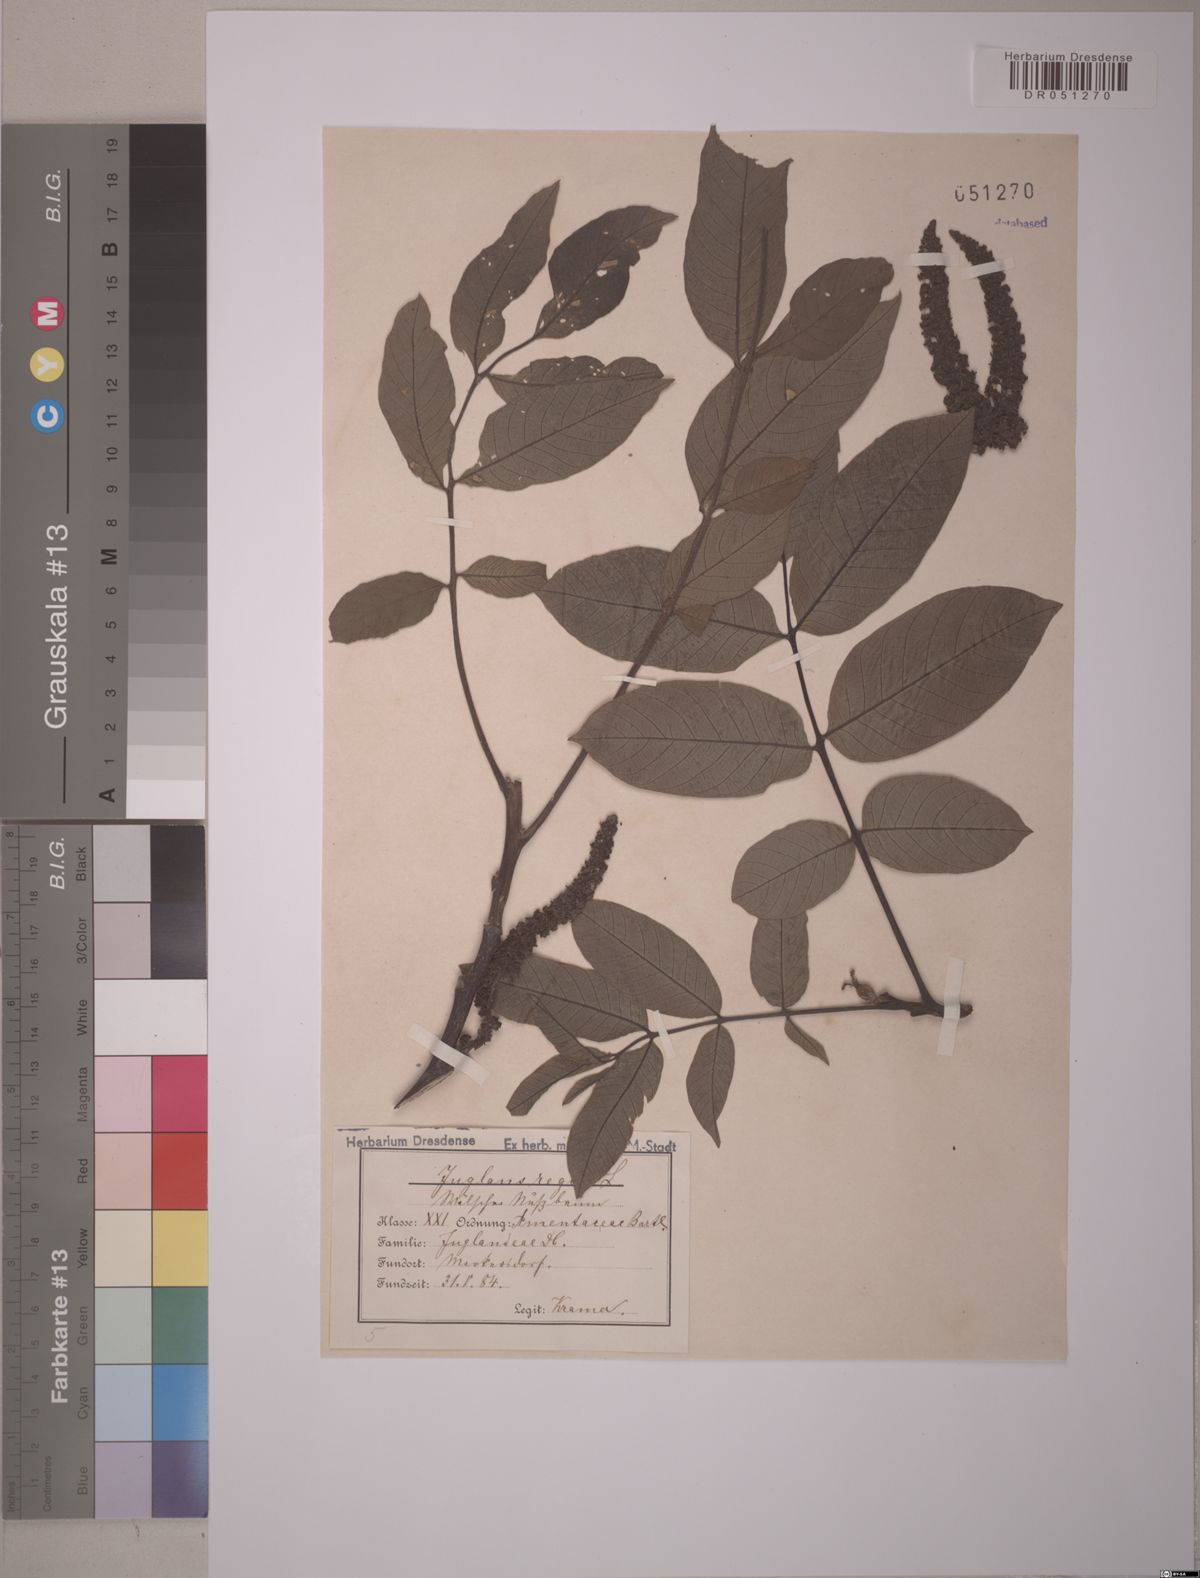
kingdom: Plantae
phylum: Tracheophyta
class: Magnoliopsida
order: Fagales
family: Juglandaceae
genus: Juglans
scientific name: Juglans regia
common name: Walnut
